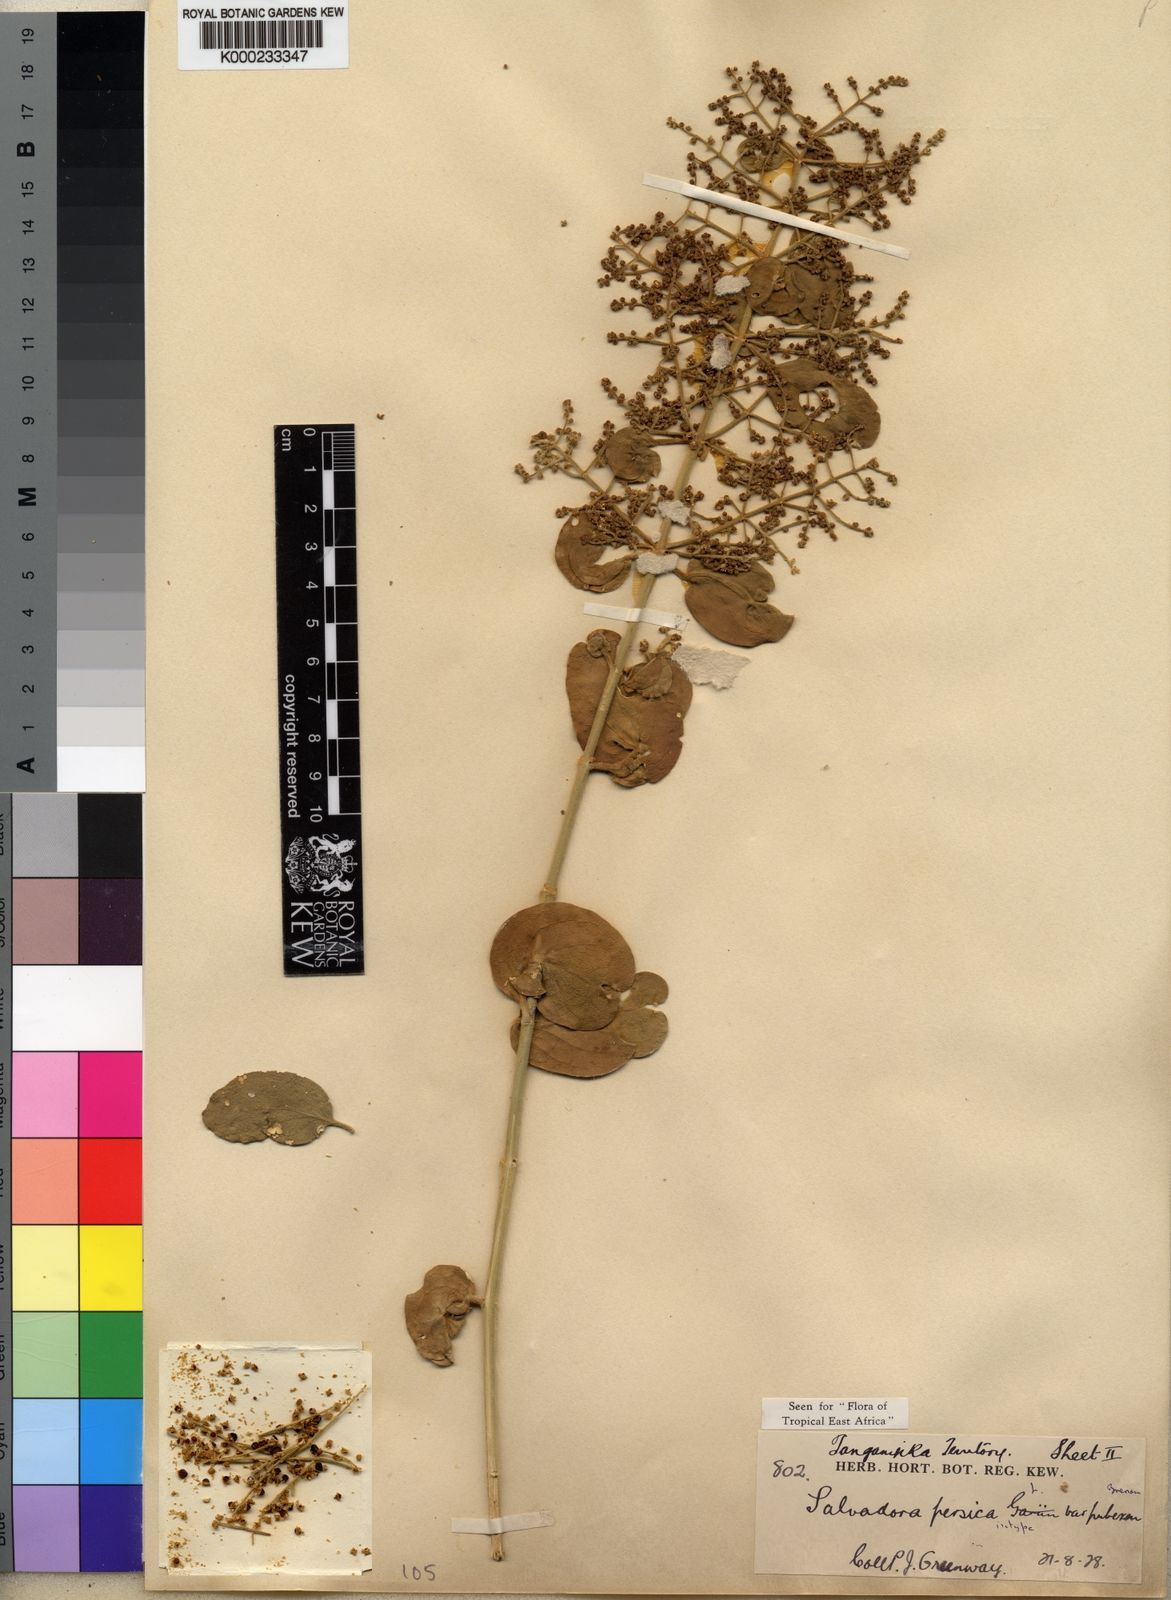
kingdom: Plantae
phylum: Tracheophyta
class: Magnoliopsida
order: Brassicales
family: Salvadoraceae
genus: Salvadora
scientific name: Salvadora persica
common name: Toothbrushtree
